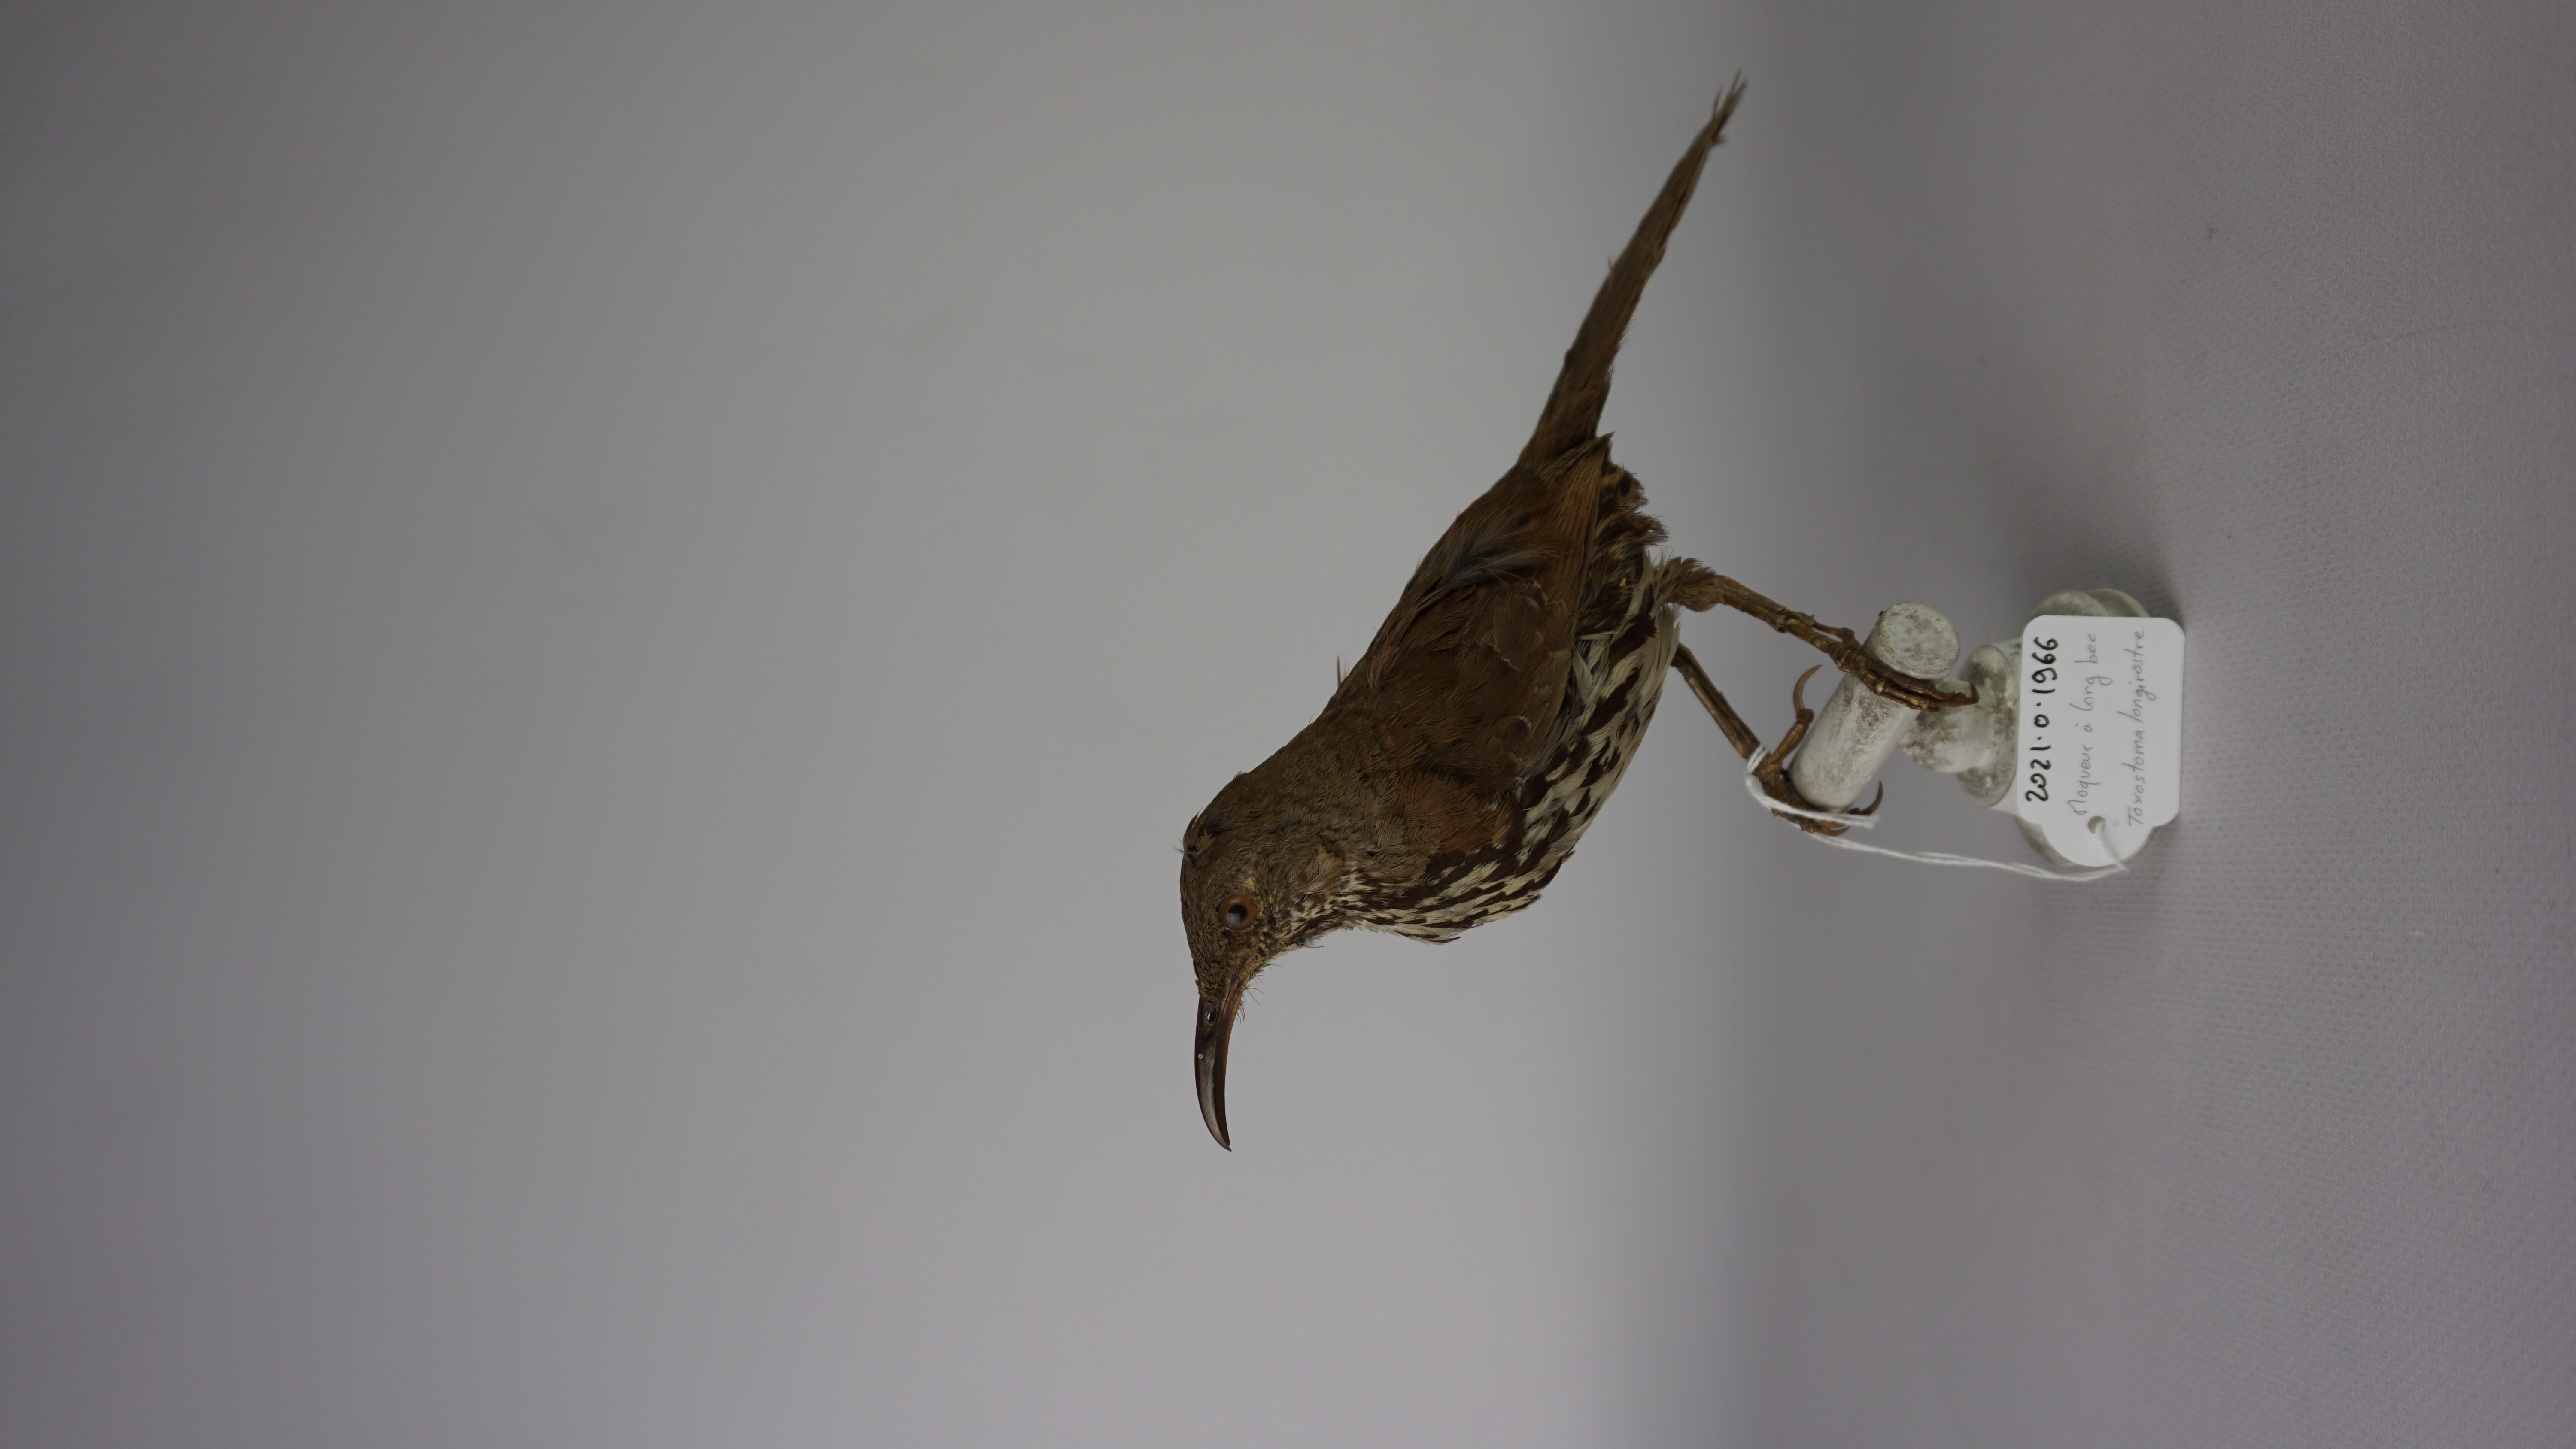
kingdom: Animalia
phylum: Chordata
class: Aves
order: Passeriformes
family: Mimidae
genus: Toxostoma
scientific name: Toxostoma longirostre
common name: Long-billed thrasher
